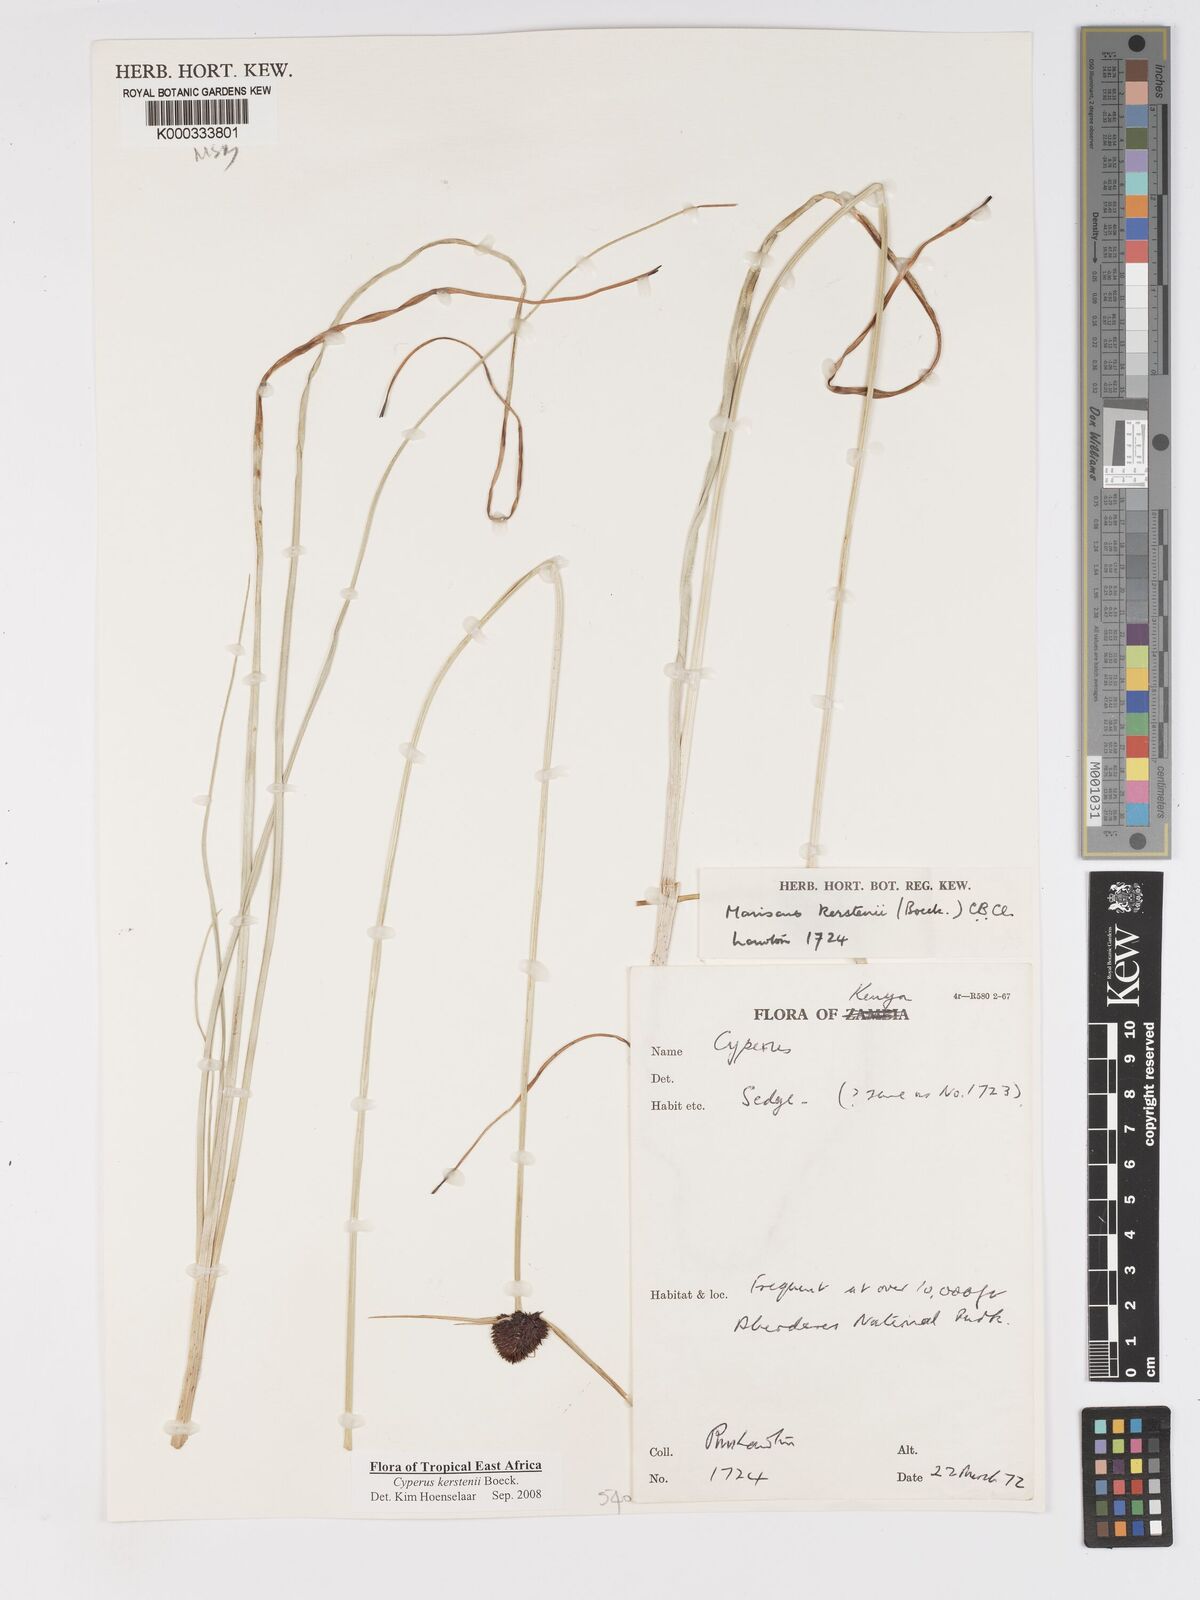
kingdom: Plantae
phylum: Tracheophyta
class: Liliopsida
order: Poales
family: Cyperaceae
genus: Cyperus
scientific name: Cyperus kerstenii
